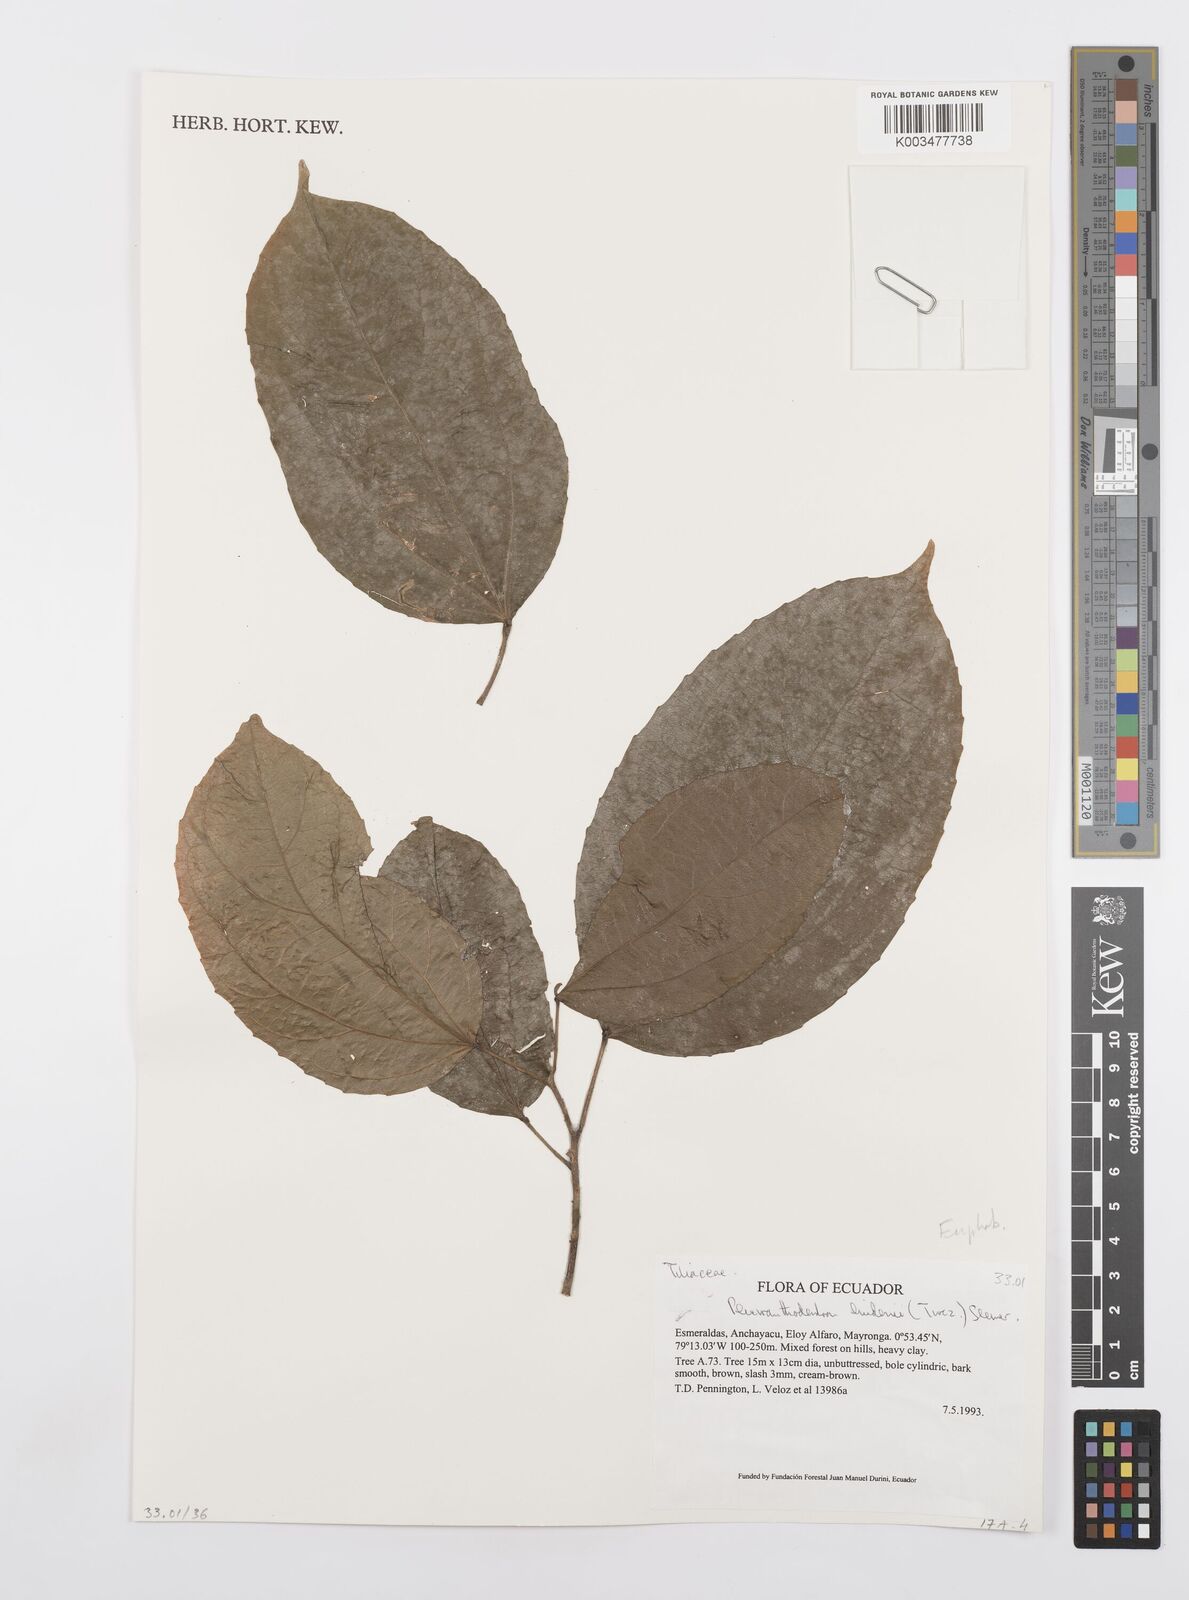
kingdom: Plantae
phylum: Tracheophyta
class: Magnoliopsida
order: Malpighiales
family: Salicaceae
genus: Pleuranthodendron
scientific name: Pleuranthodendron lindenii
